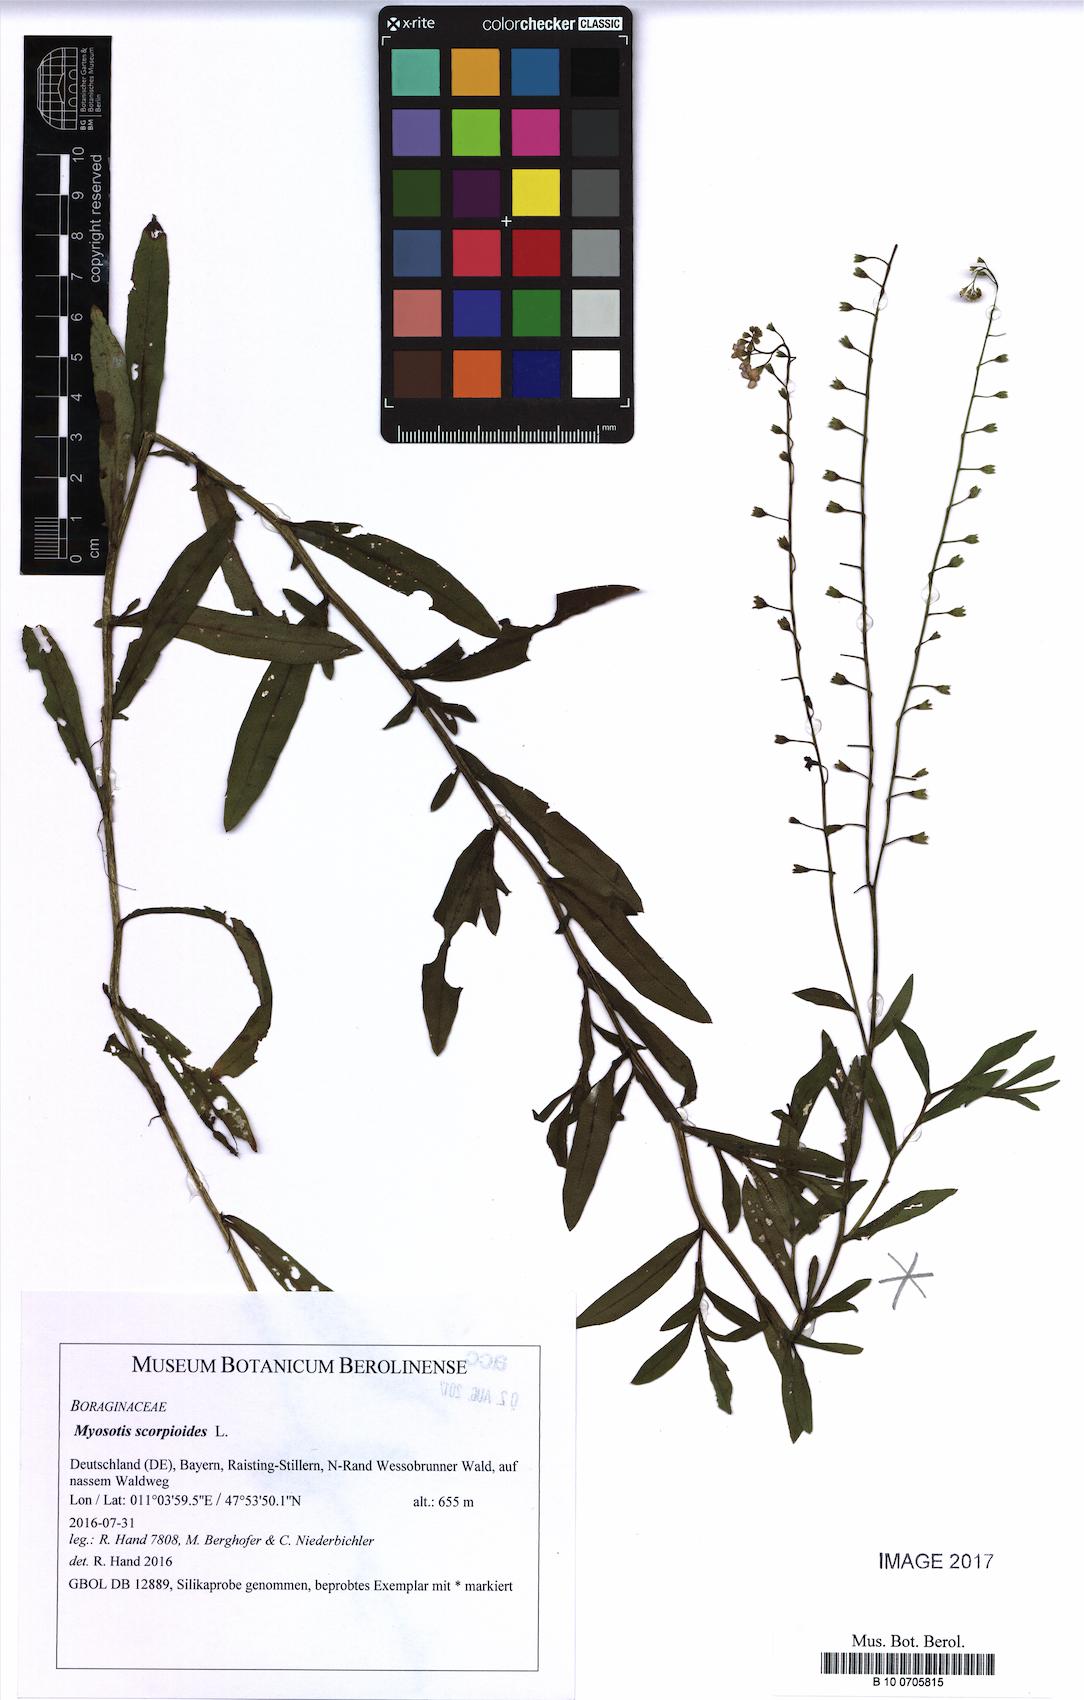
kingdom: Plantae
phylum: Tracheophyta
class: Magnoliopsida
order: Boraginales
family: Boraginaceae
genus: Myosotis
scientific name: Myosotis scorpioides
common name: Water forget-me-not
